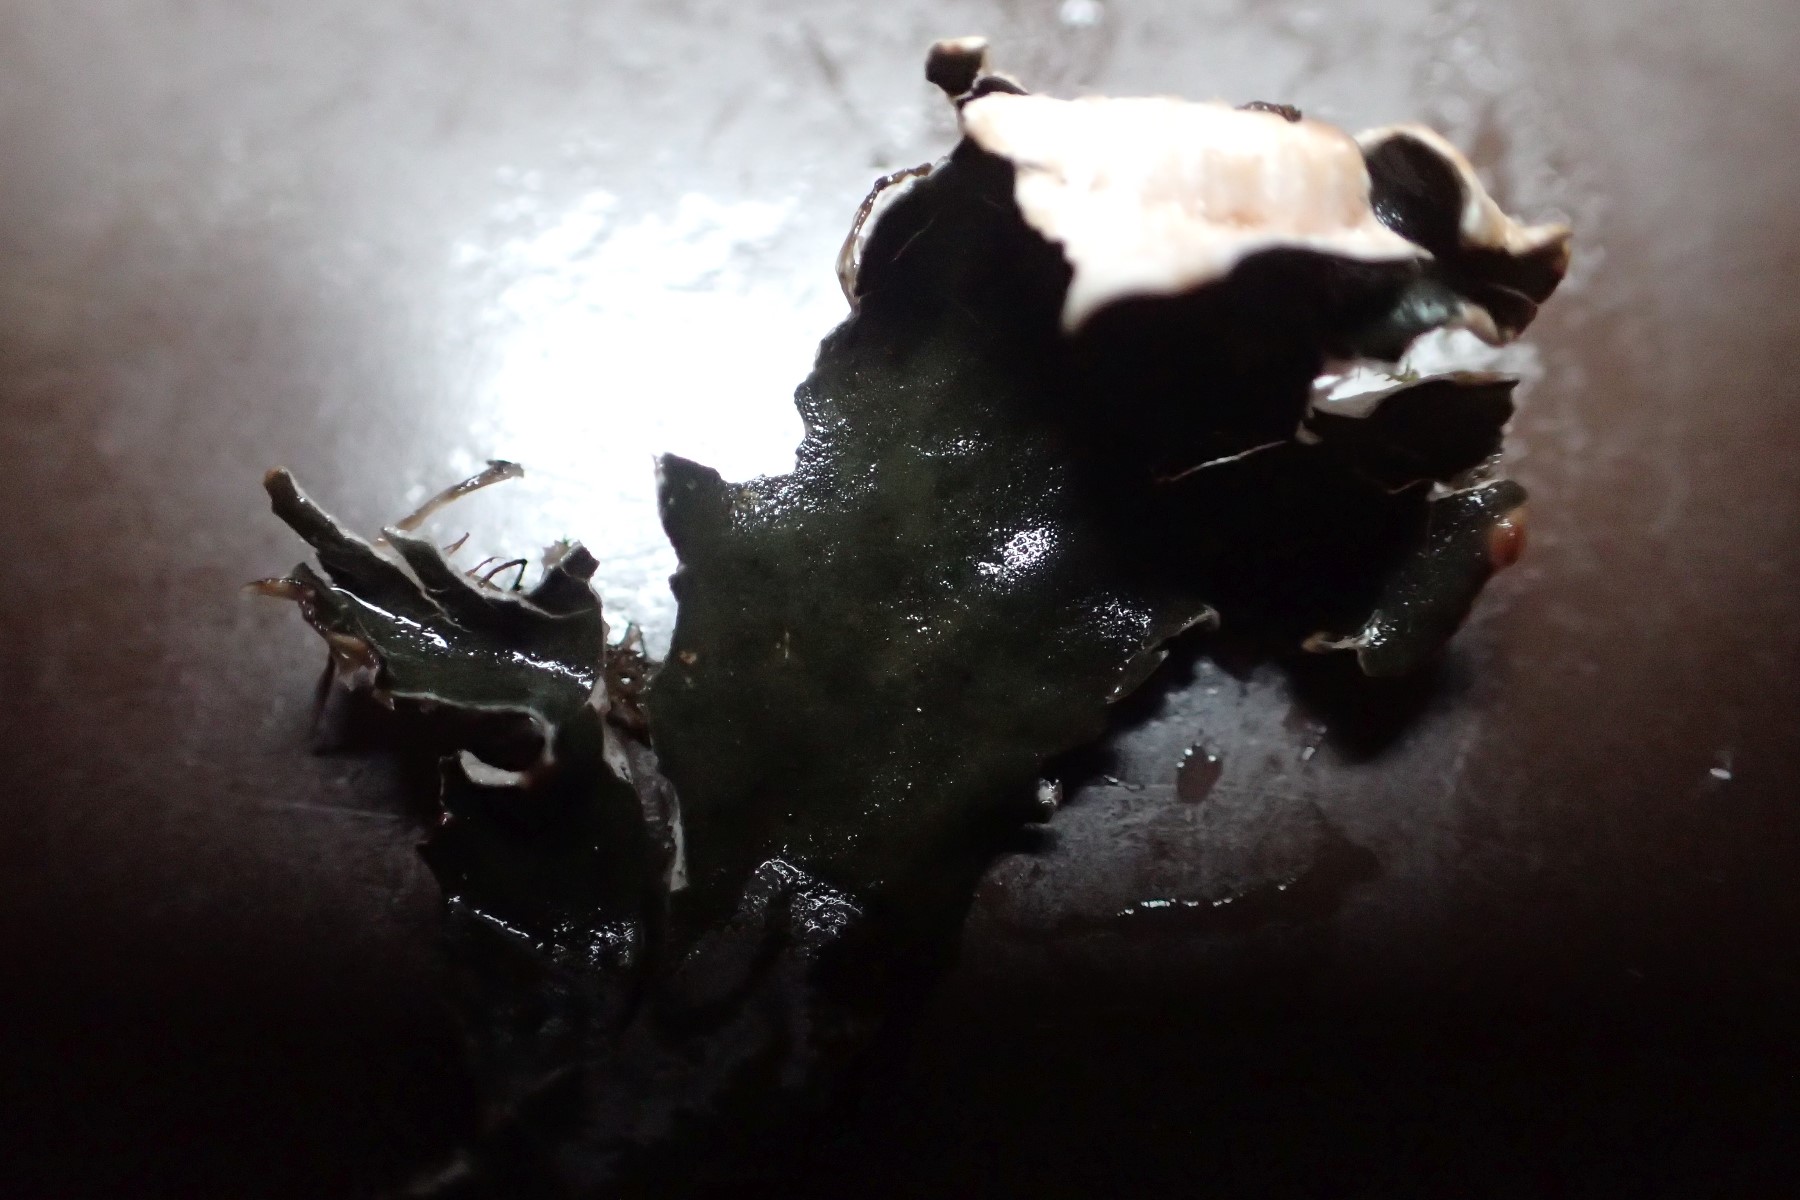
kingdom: Fungi
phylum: Ascomycota
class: Lecanoromycetes
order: Peltigerales
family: Peltigeraceae
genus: Peltigera
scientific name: Peltigera
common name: skjoldlav
